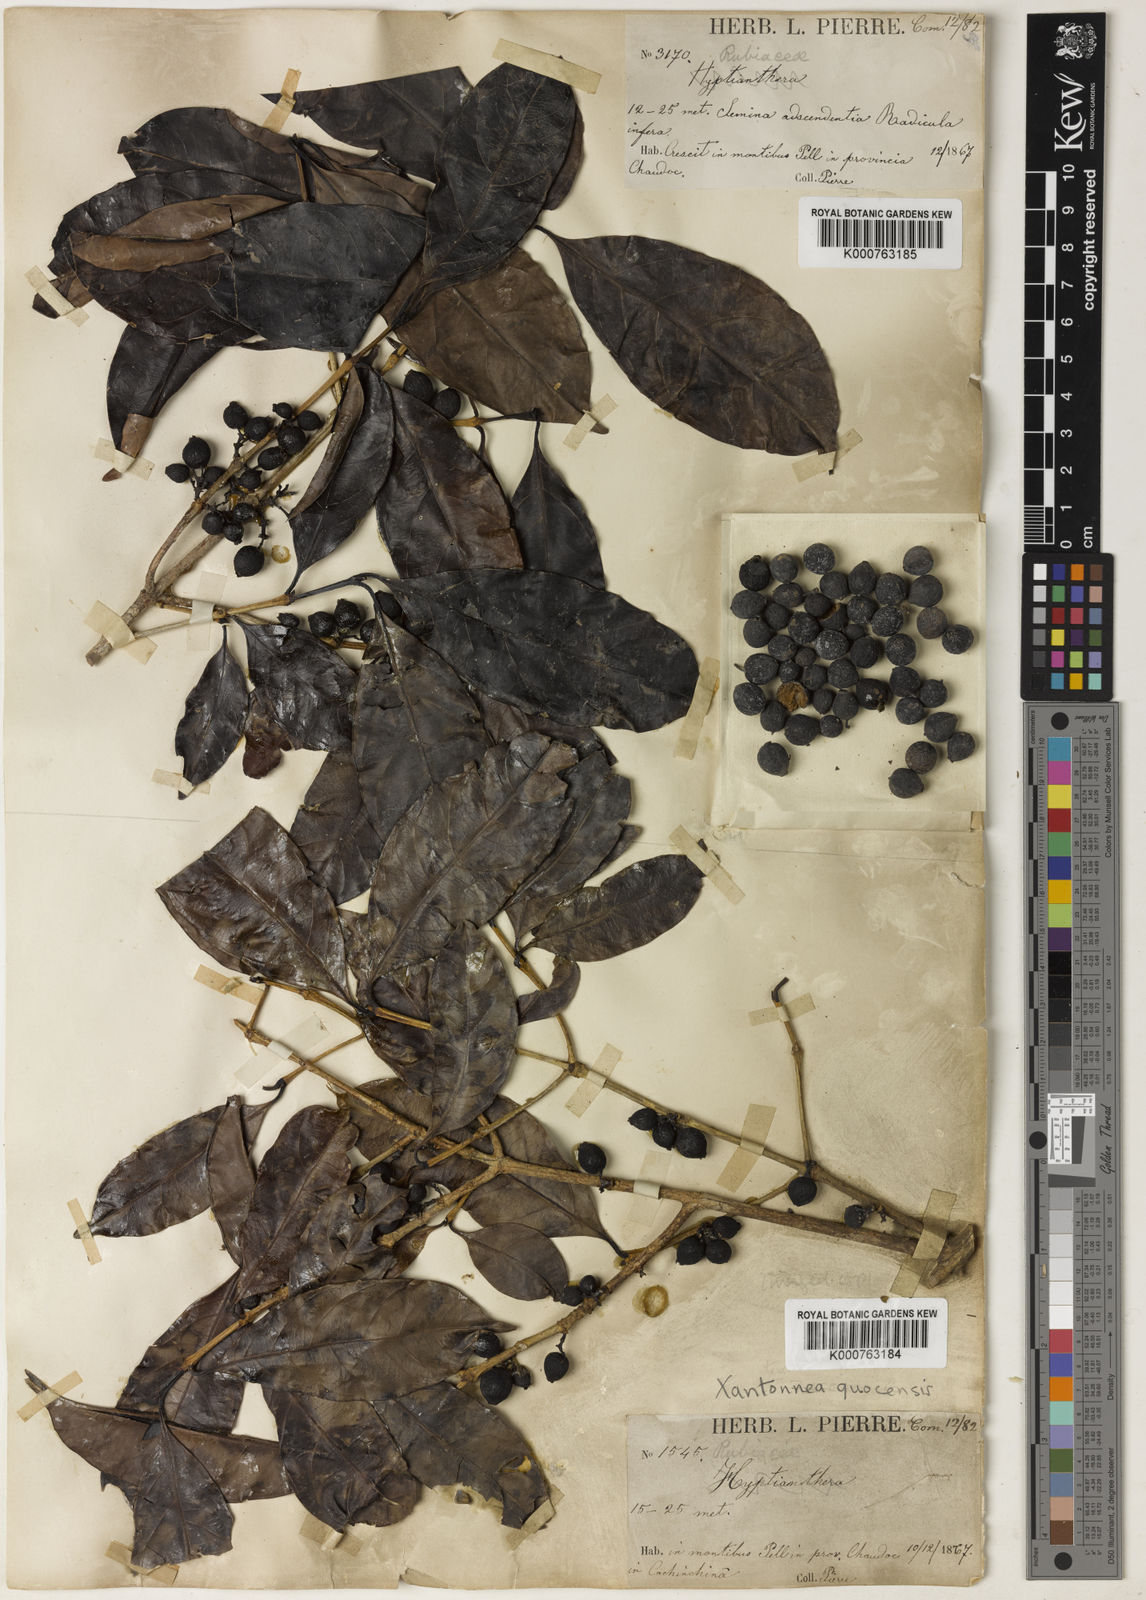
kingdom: Plantae
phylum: Tracheophyta
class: Magnoliopsida
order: Gentianales
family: Rubiaceae
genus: Discospermum
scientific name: Discospermum quocensis
